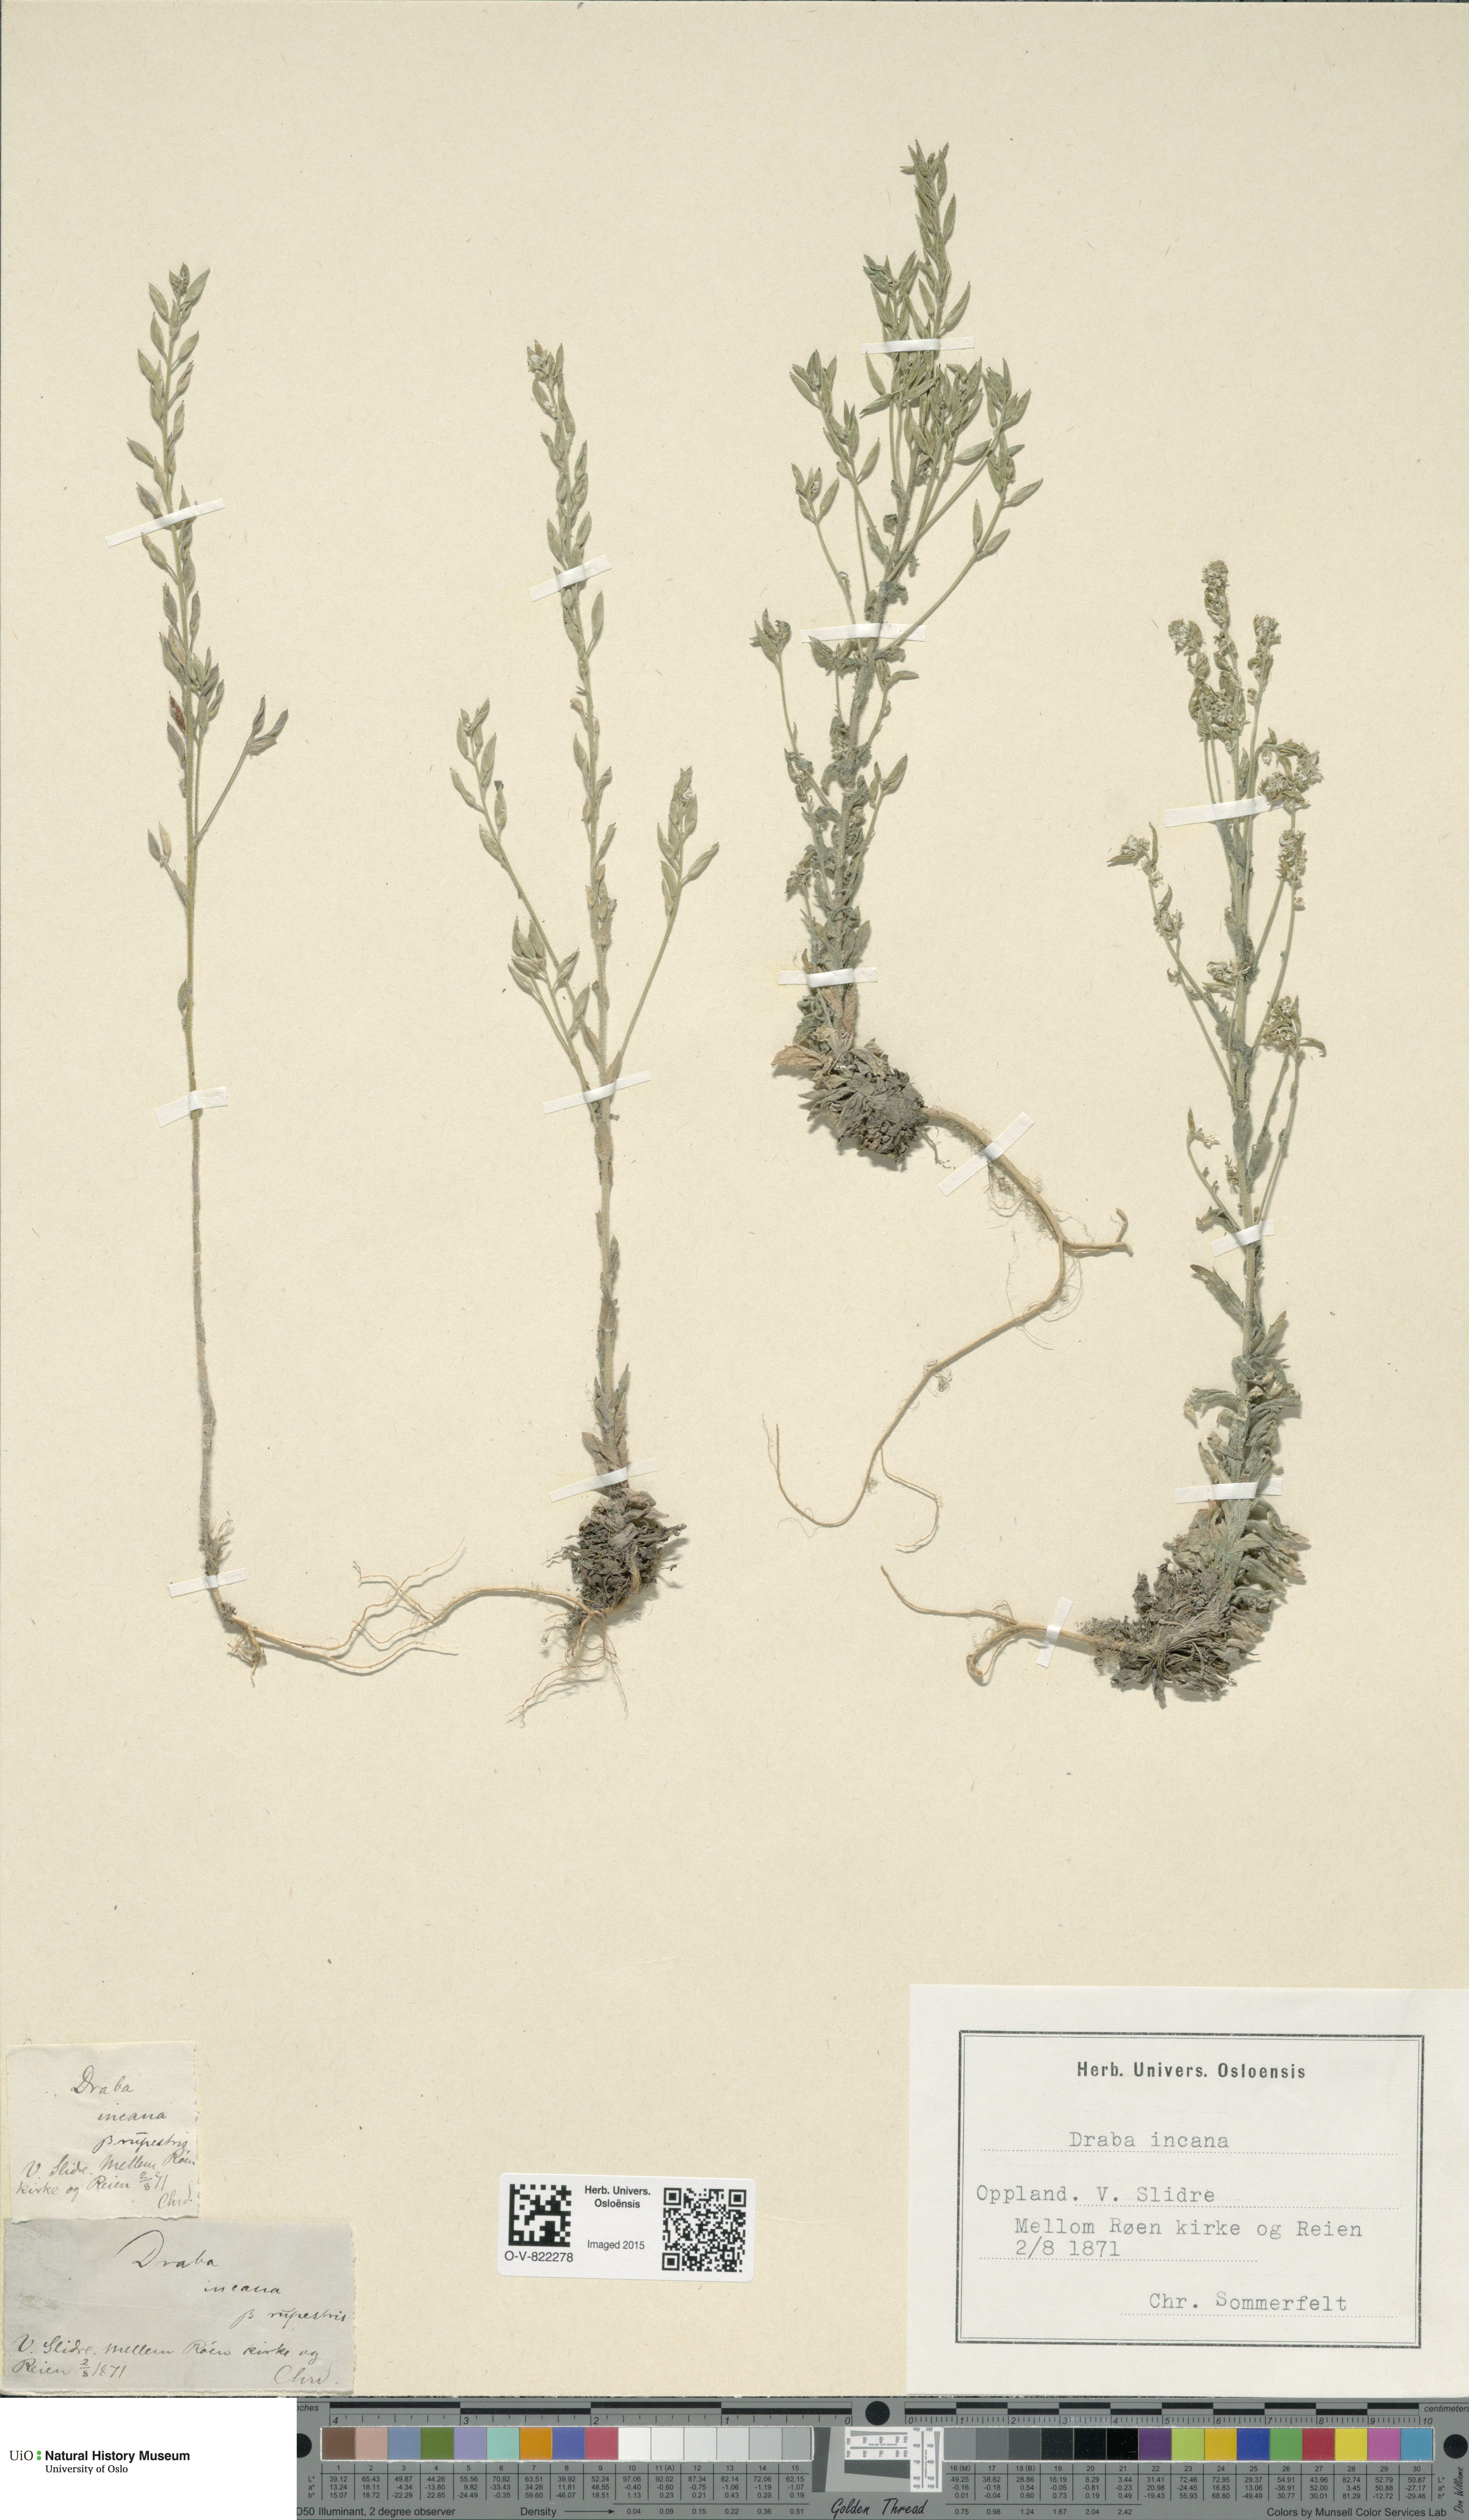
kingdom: Plantae
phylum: Tracheophyta
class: Magnoliopsida
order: Brassicales
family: Brassicaceae
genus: Draba
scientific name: Draba incana
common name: Hoary whitlow-grass
